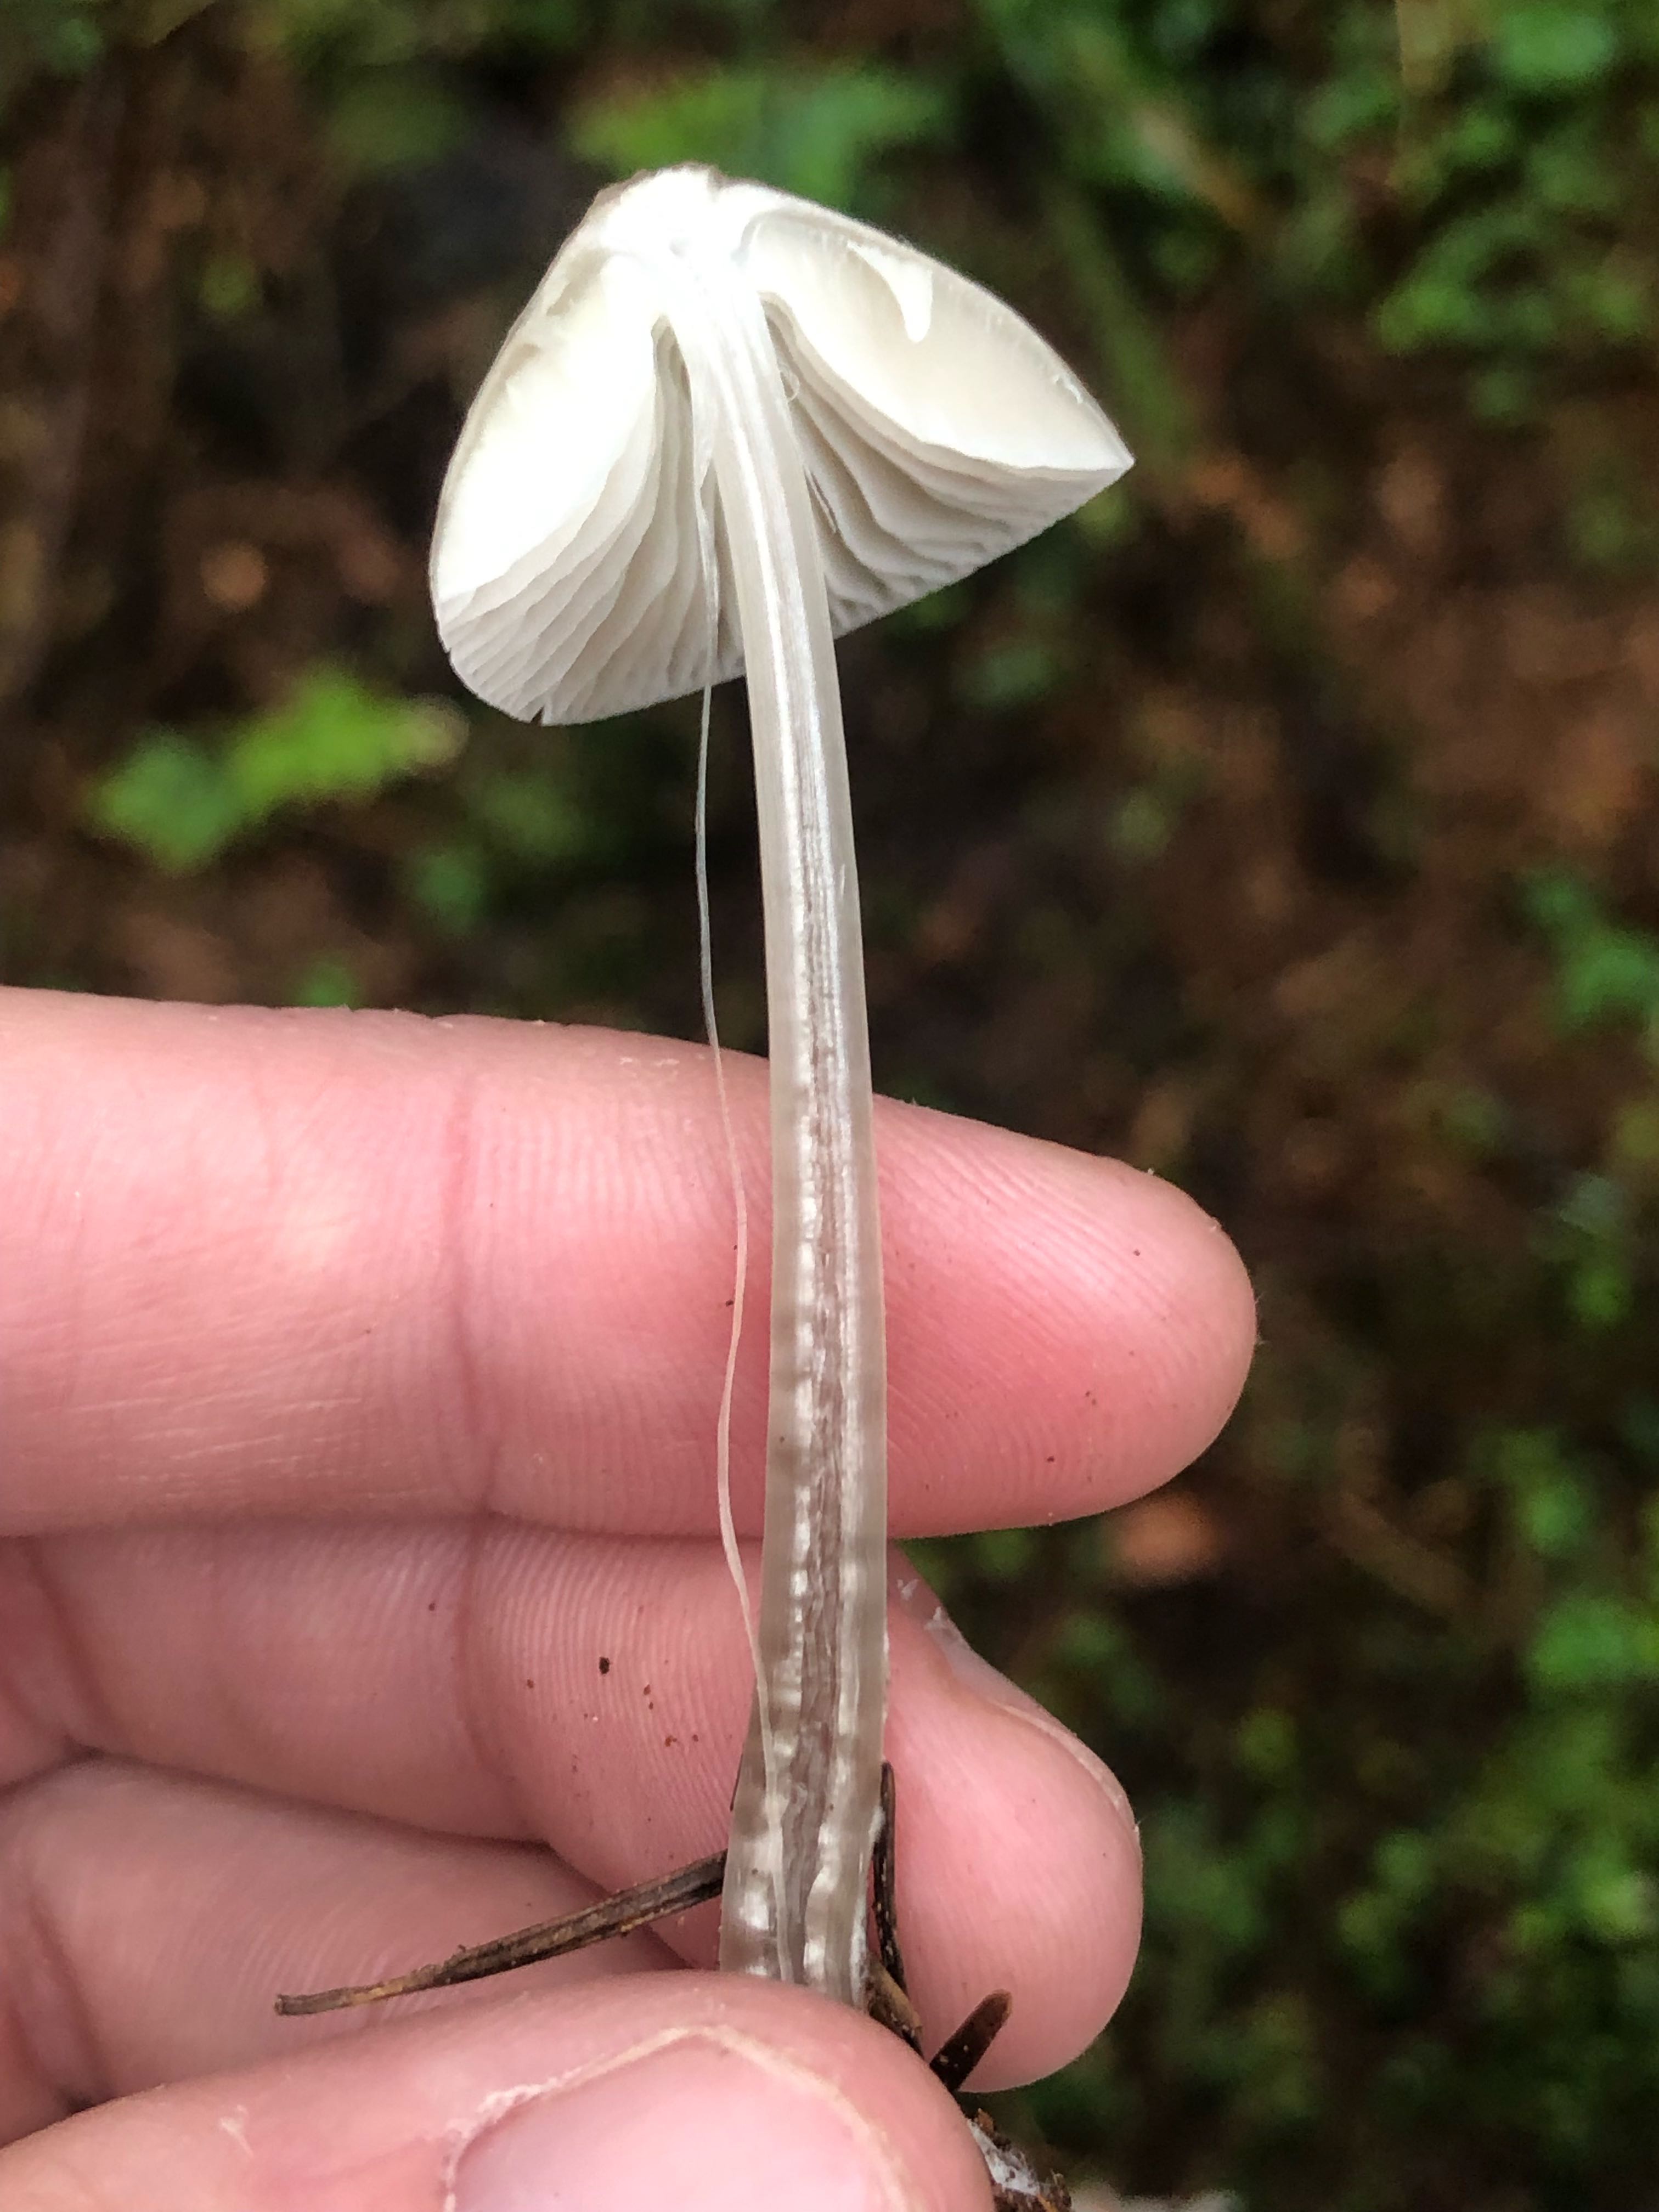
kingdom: Fungi
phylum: Basidiomycota
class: Agaricomycetes
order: Agaricales
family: Mycenaceae
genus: Mycena
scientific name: Mycena galericulata
